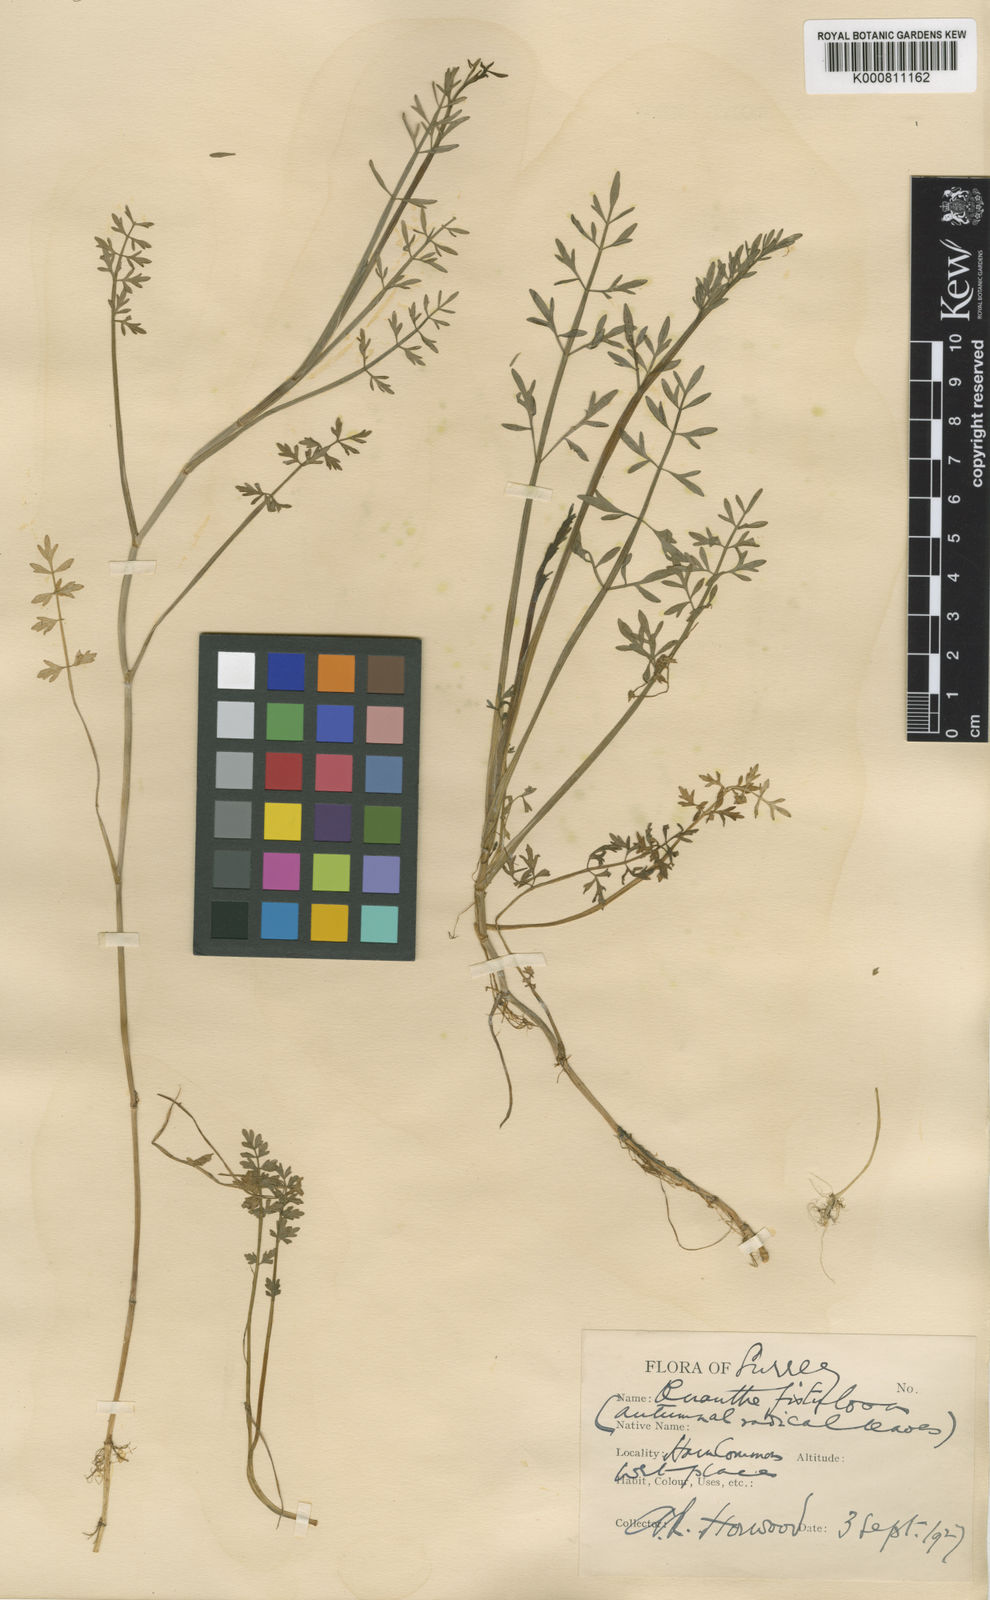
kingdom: Plantae
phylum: Tracheophyta
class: Magnoliopsida
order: Apiales
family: Apiaceae
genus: Oenanthe
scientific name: Oenanthe fistulosa
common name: Tubular water-dropwort
